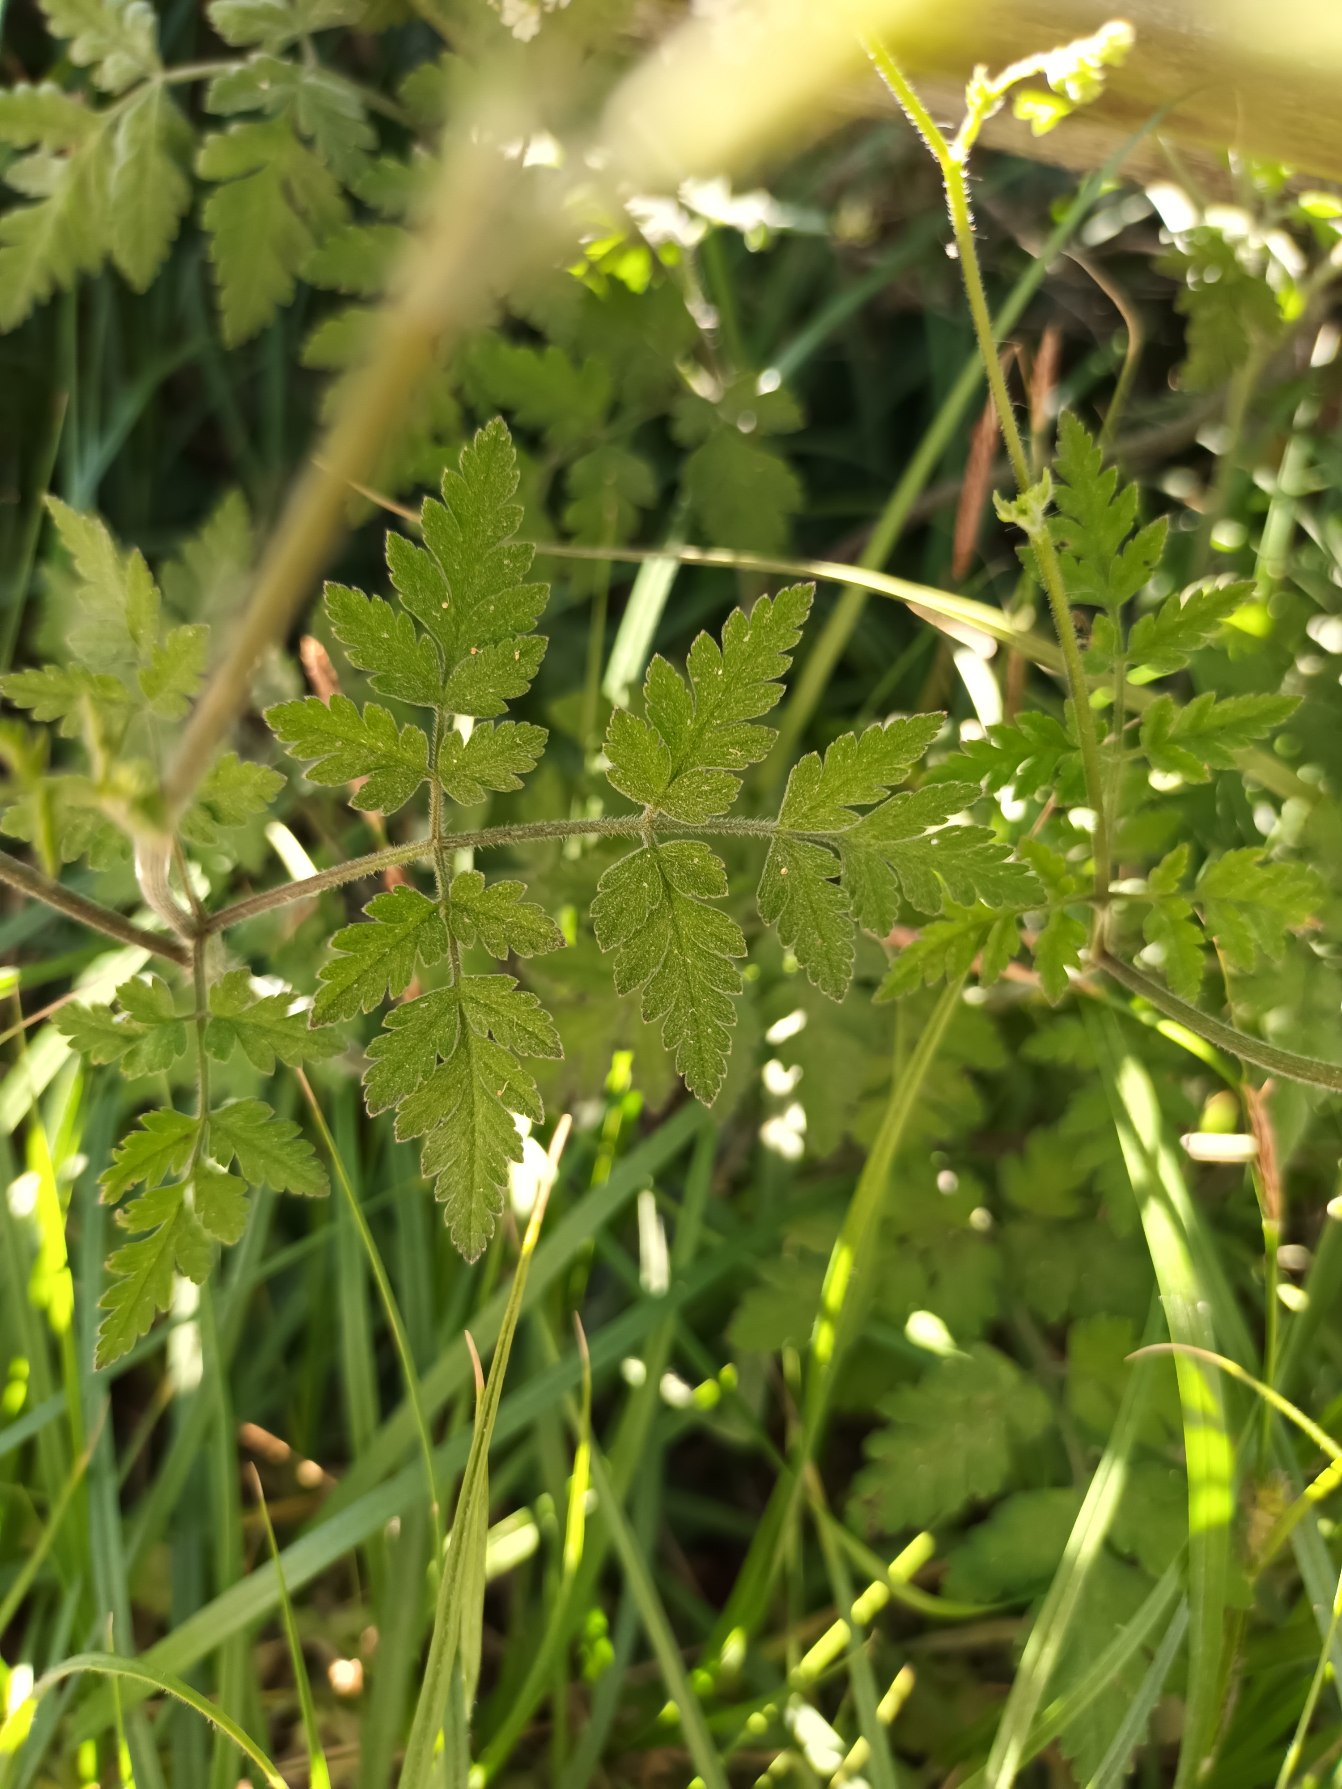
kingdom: Plantae
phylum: Tracheophyta
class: Magnoliopsida
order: Apiales
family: Apiaceae
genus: Chaerophyllum
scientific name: Chaerophyllum temulum
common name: Almindelig hulsvøb
